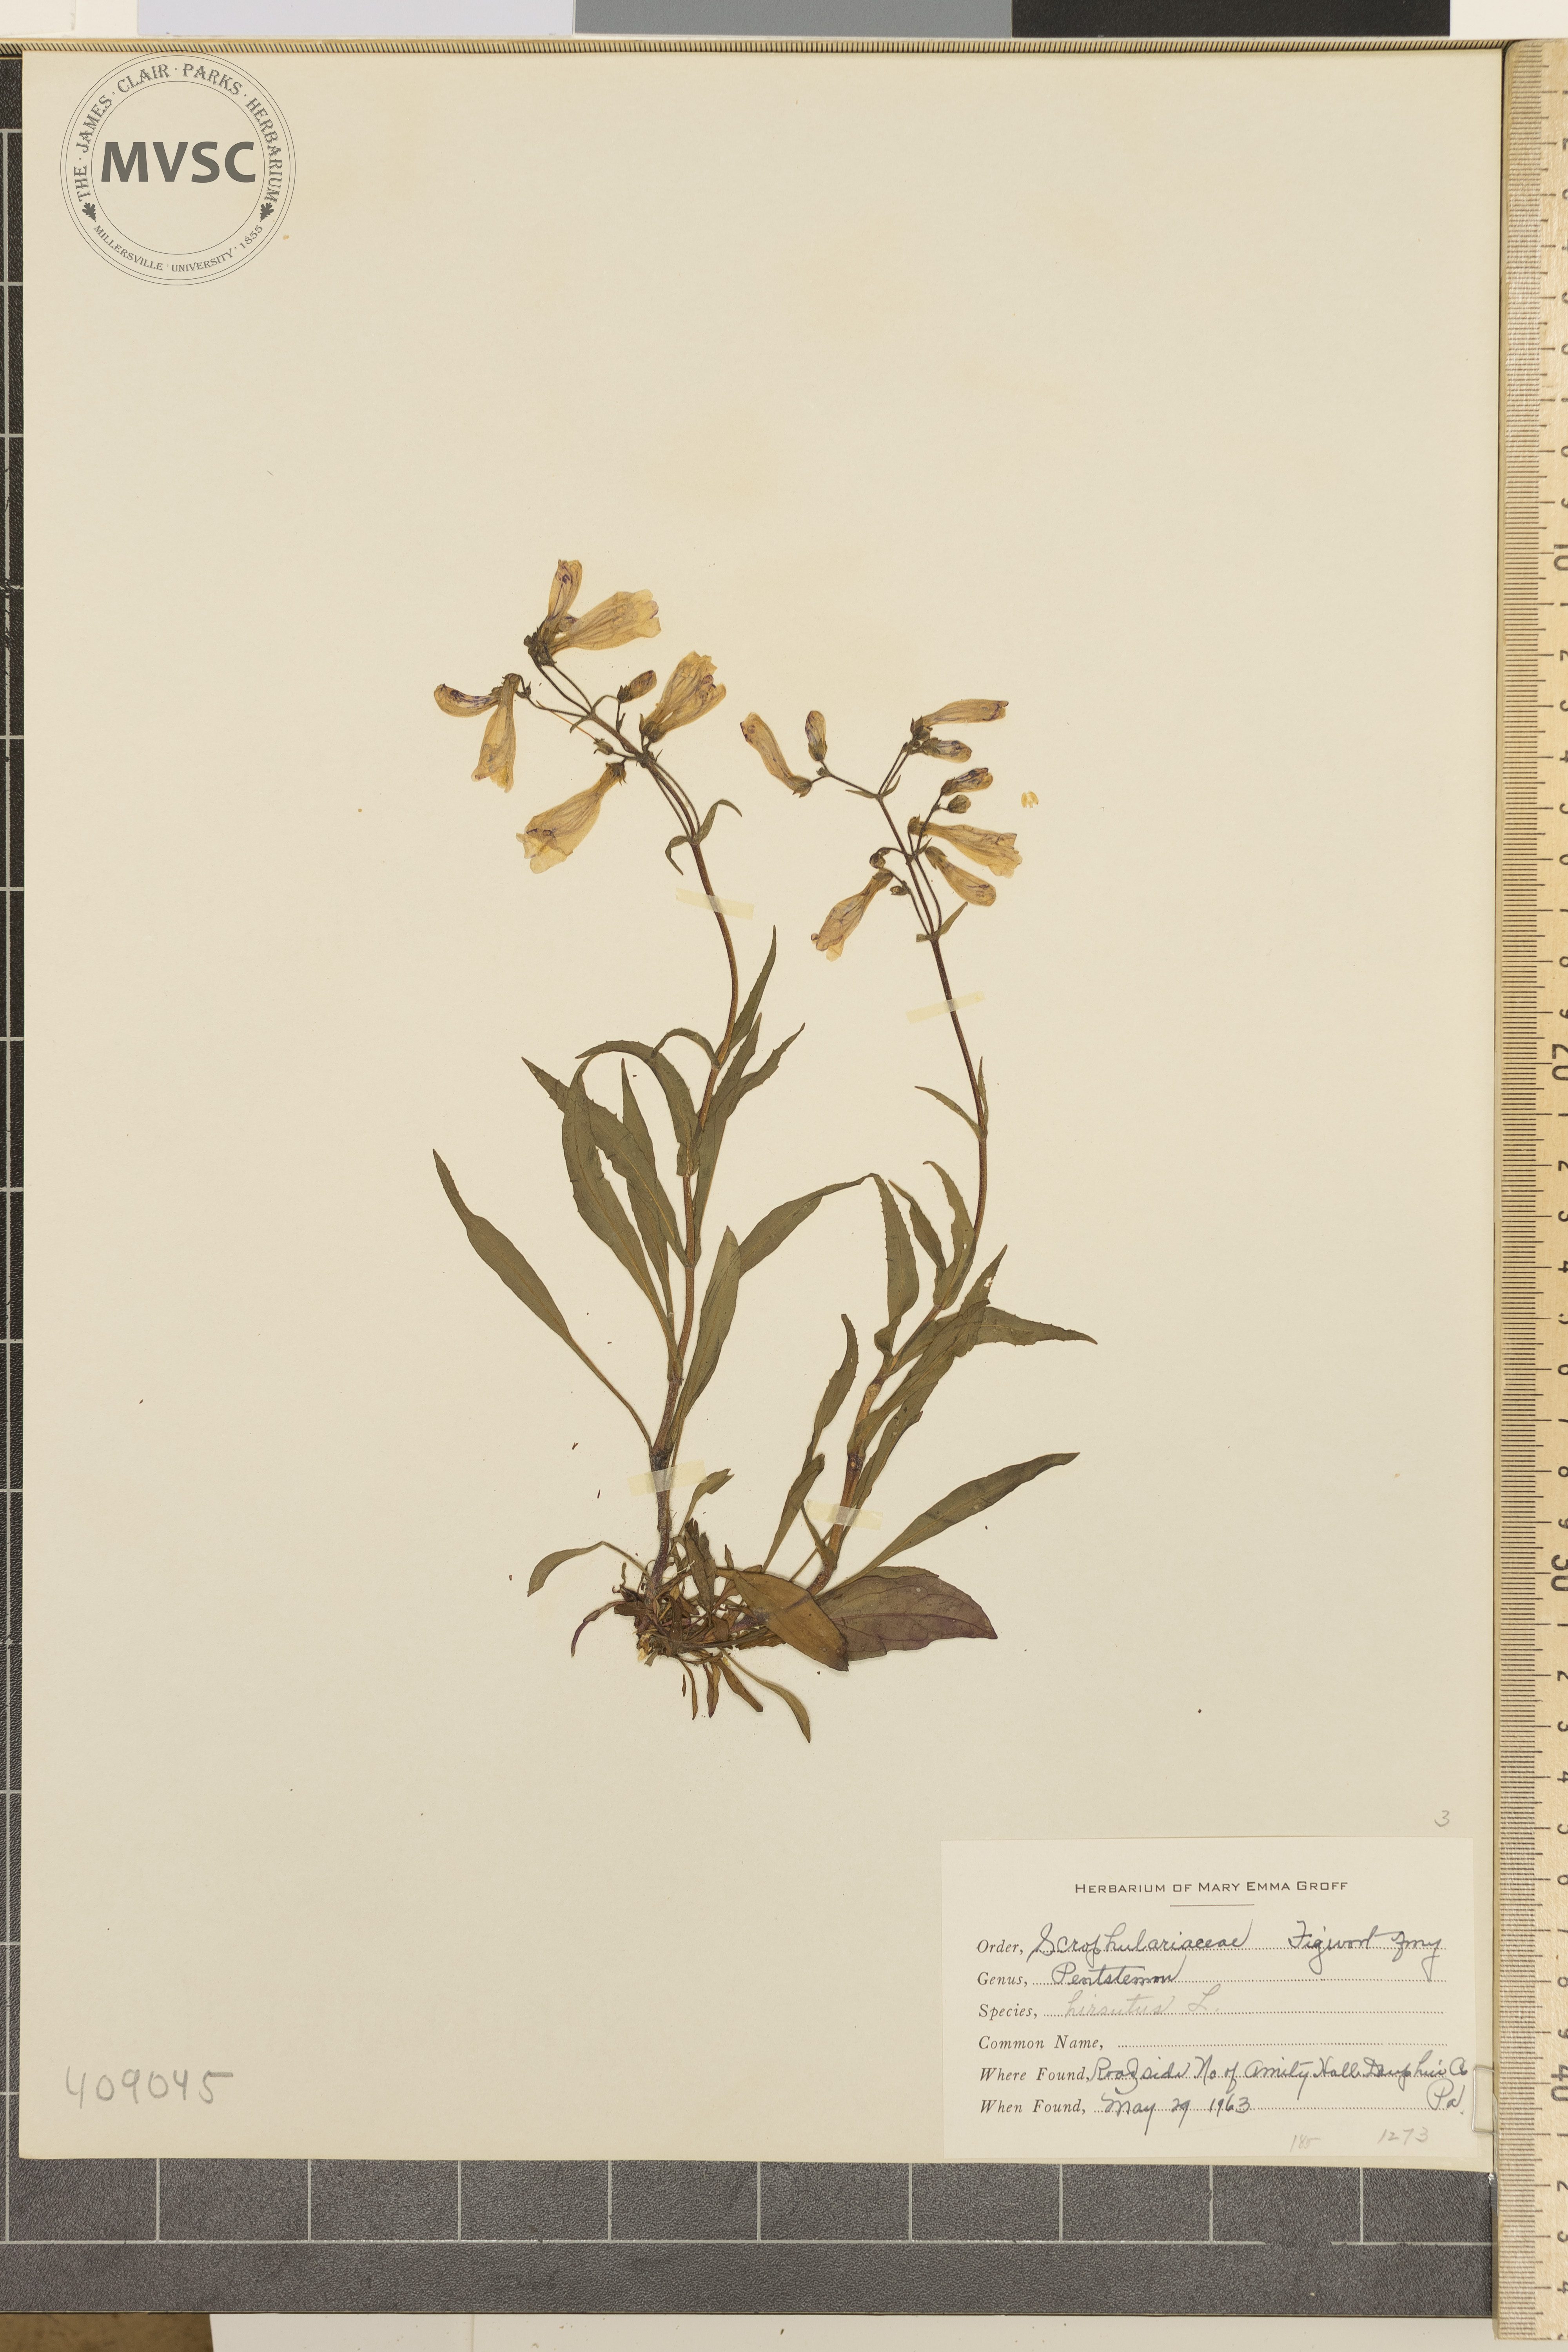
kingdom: Plantae
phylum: Tracheophyta
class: Magnoliopsida
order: Lamiales
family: Plantaginaceae
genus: Penstemon
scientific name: Penstemon hirsutus
